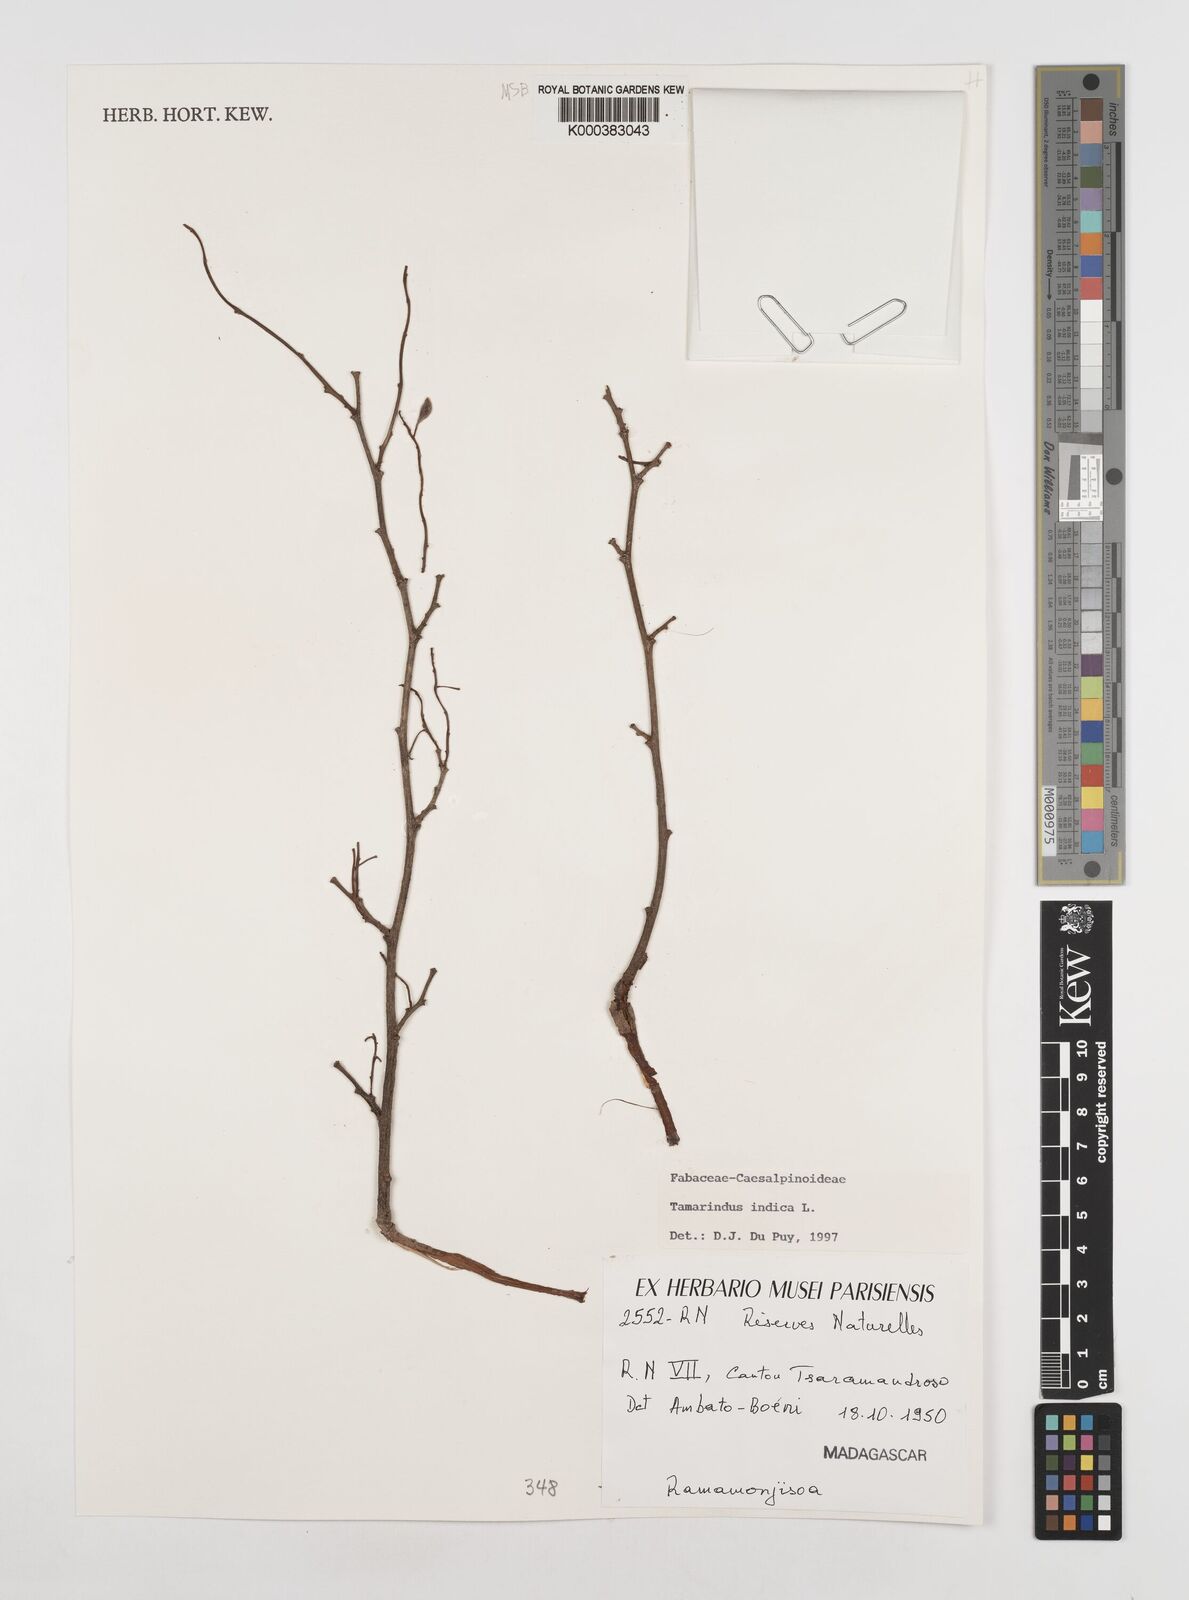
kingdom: Plantae
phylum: Tracheophyta
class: Magnoliopsida
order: Fabales
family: Fabaceae
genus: Tamarindus
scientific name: Tamarindus indica
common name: Tamarind
